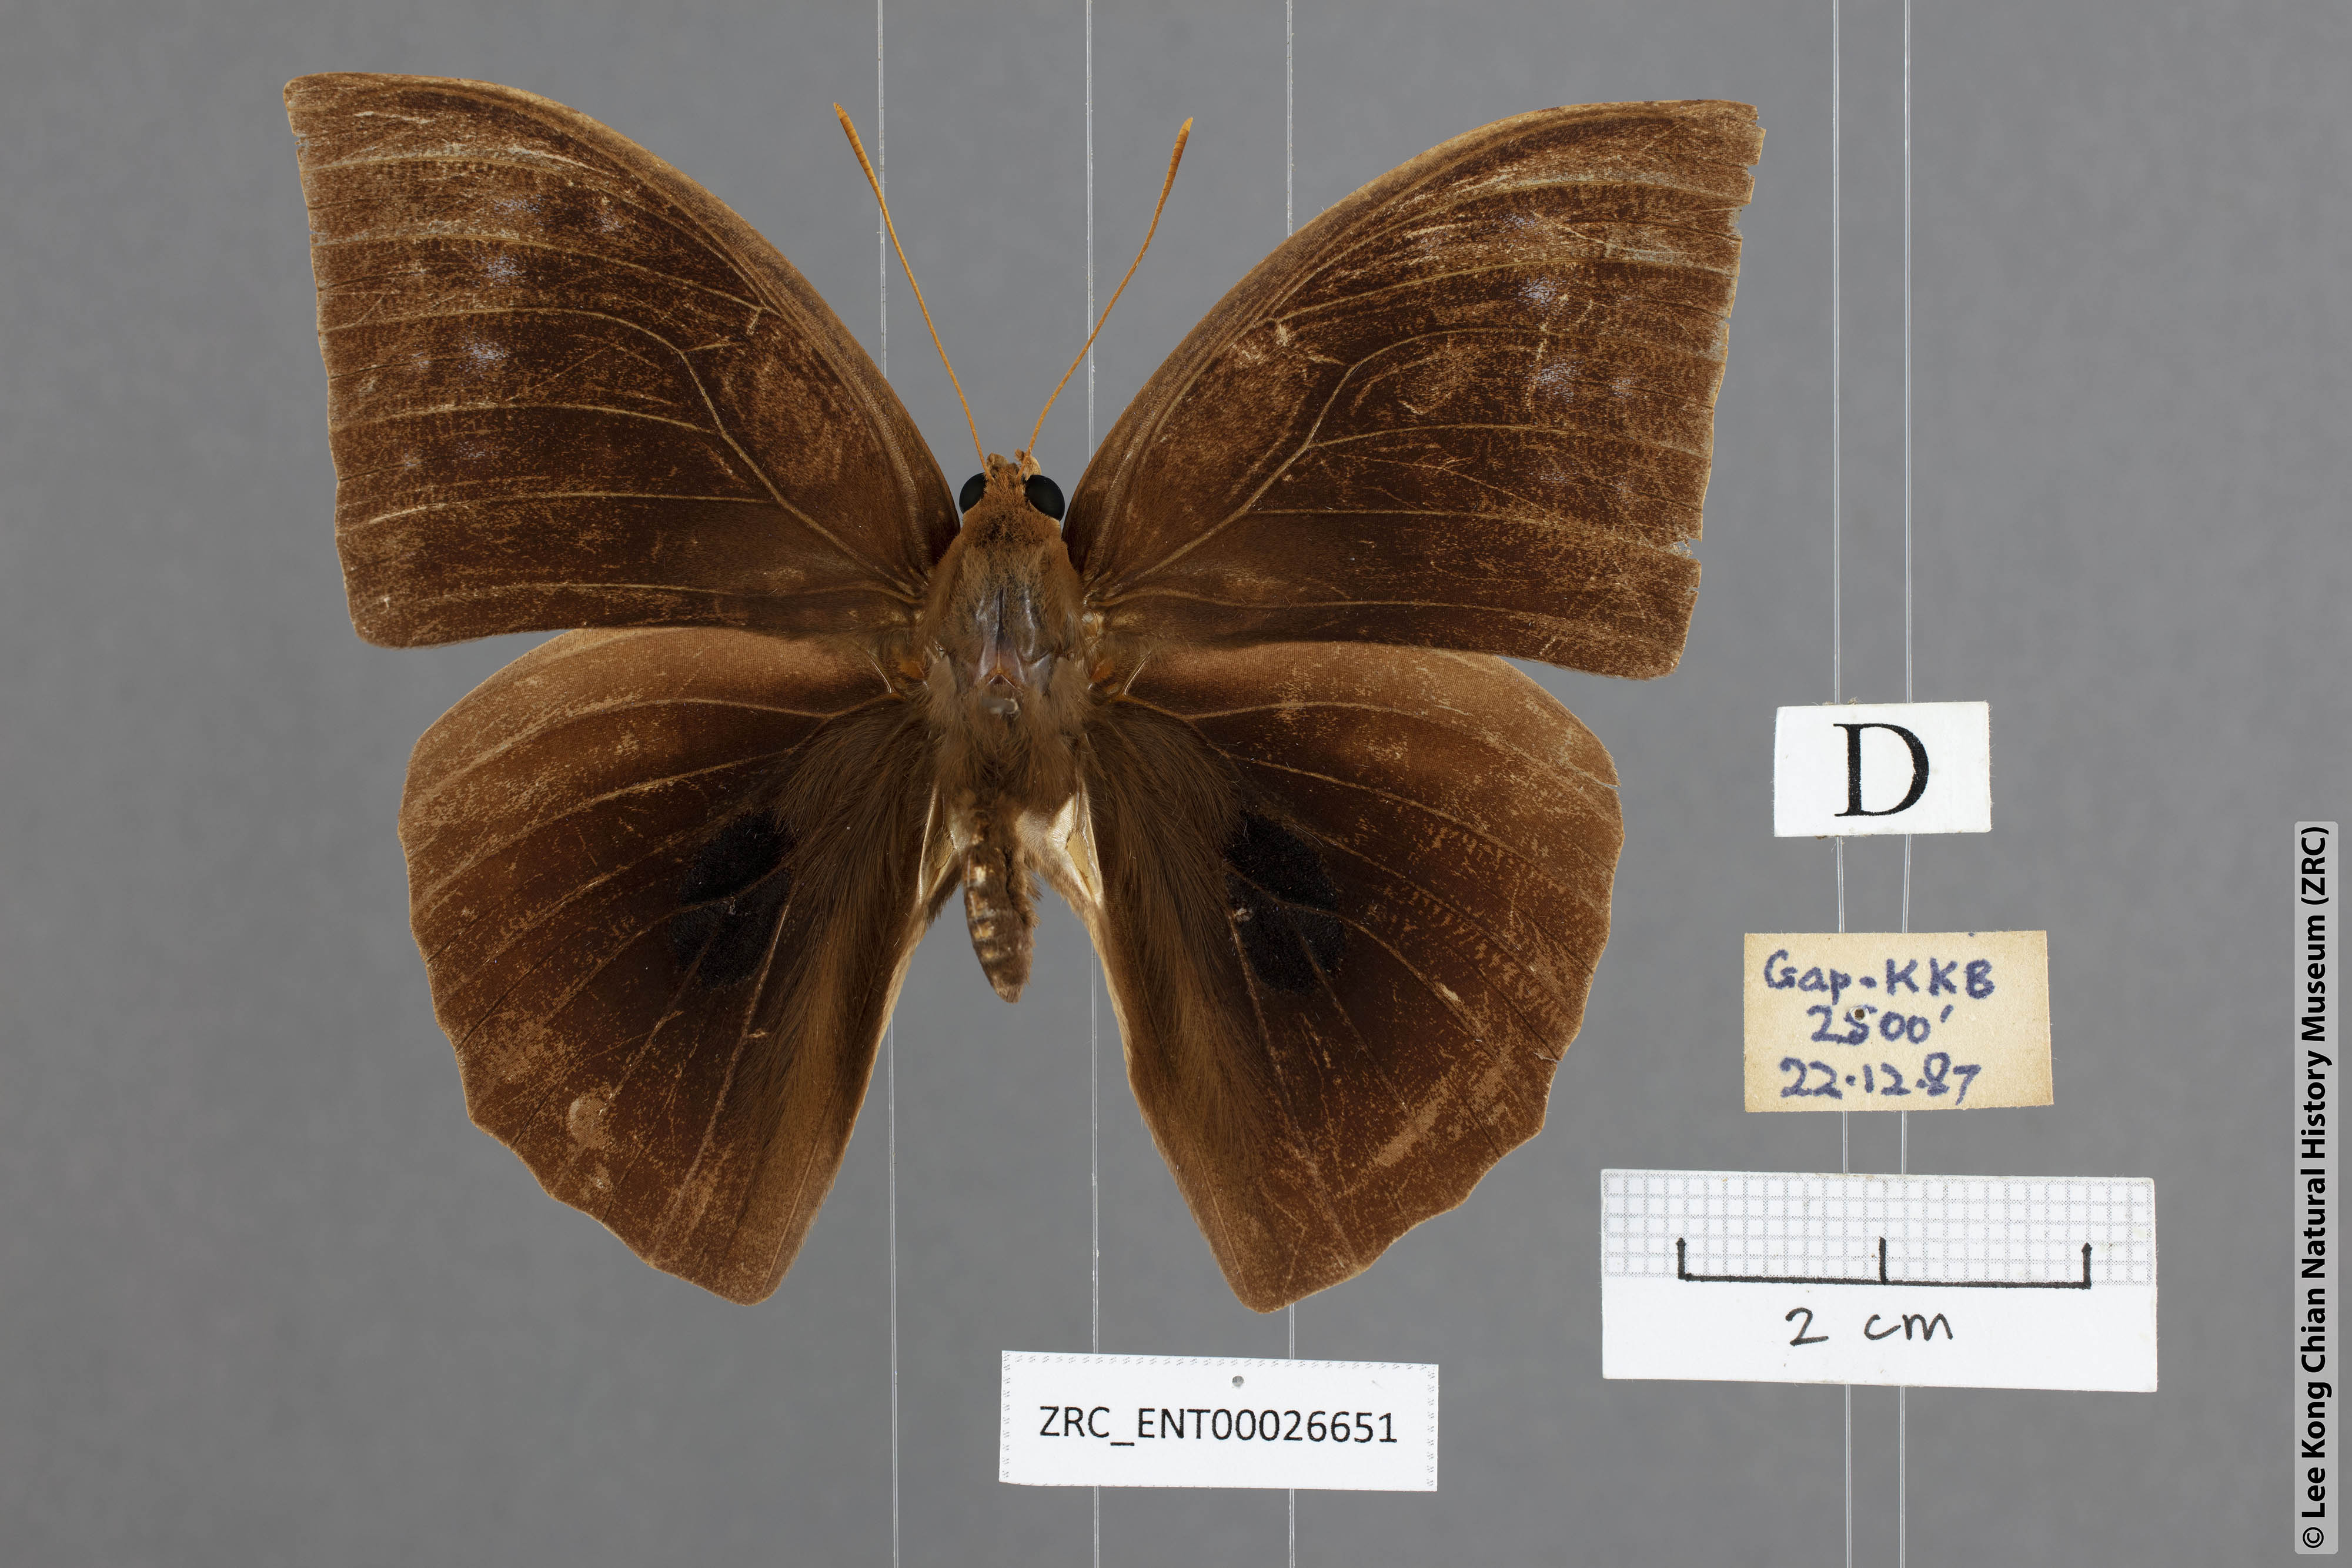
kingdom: Animalia
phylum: Arthropoda
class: Insecta
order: Lepidoptera
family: Nymphalidae
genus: Discophora
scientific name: Discophora sondaica
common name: Common duffer
